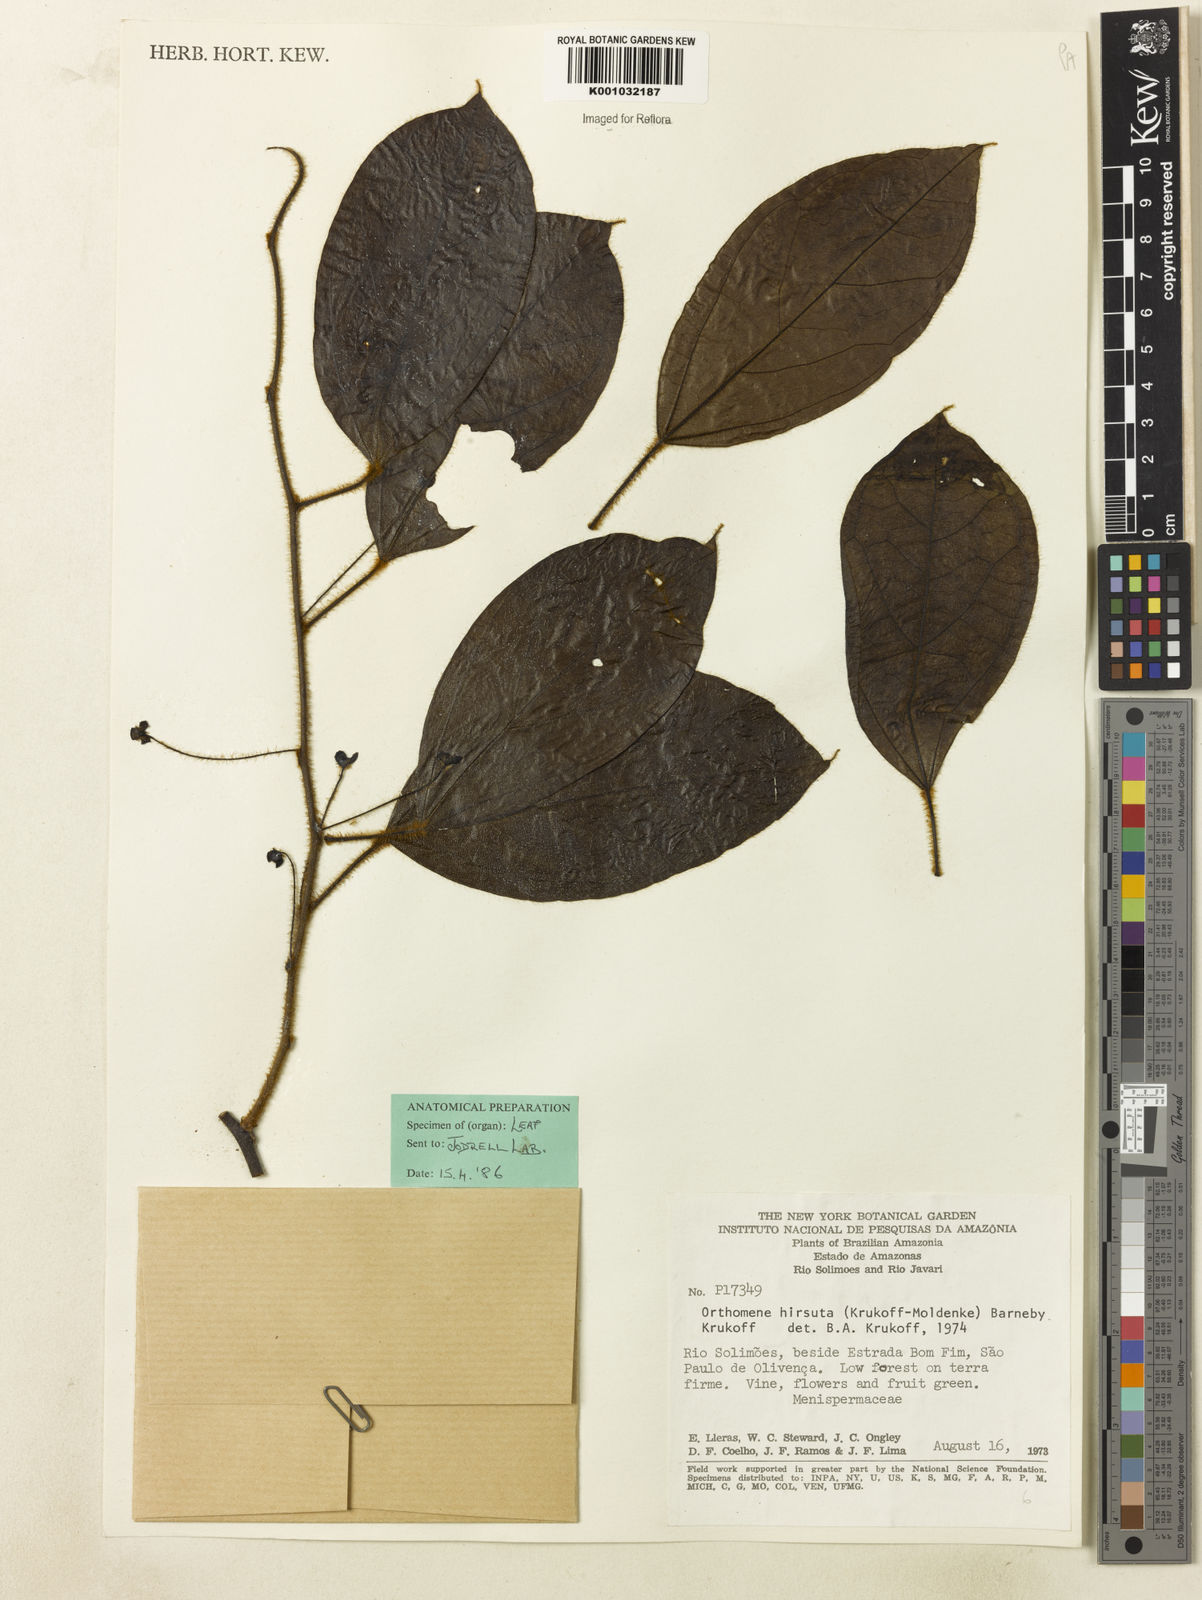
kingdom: Plantae
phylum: Tracheophyta
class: Magnoliopsida
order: Ranunculales
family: Menispermaceae
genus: Orthomene
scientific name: Orthomene hirsuta
